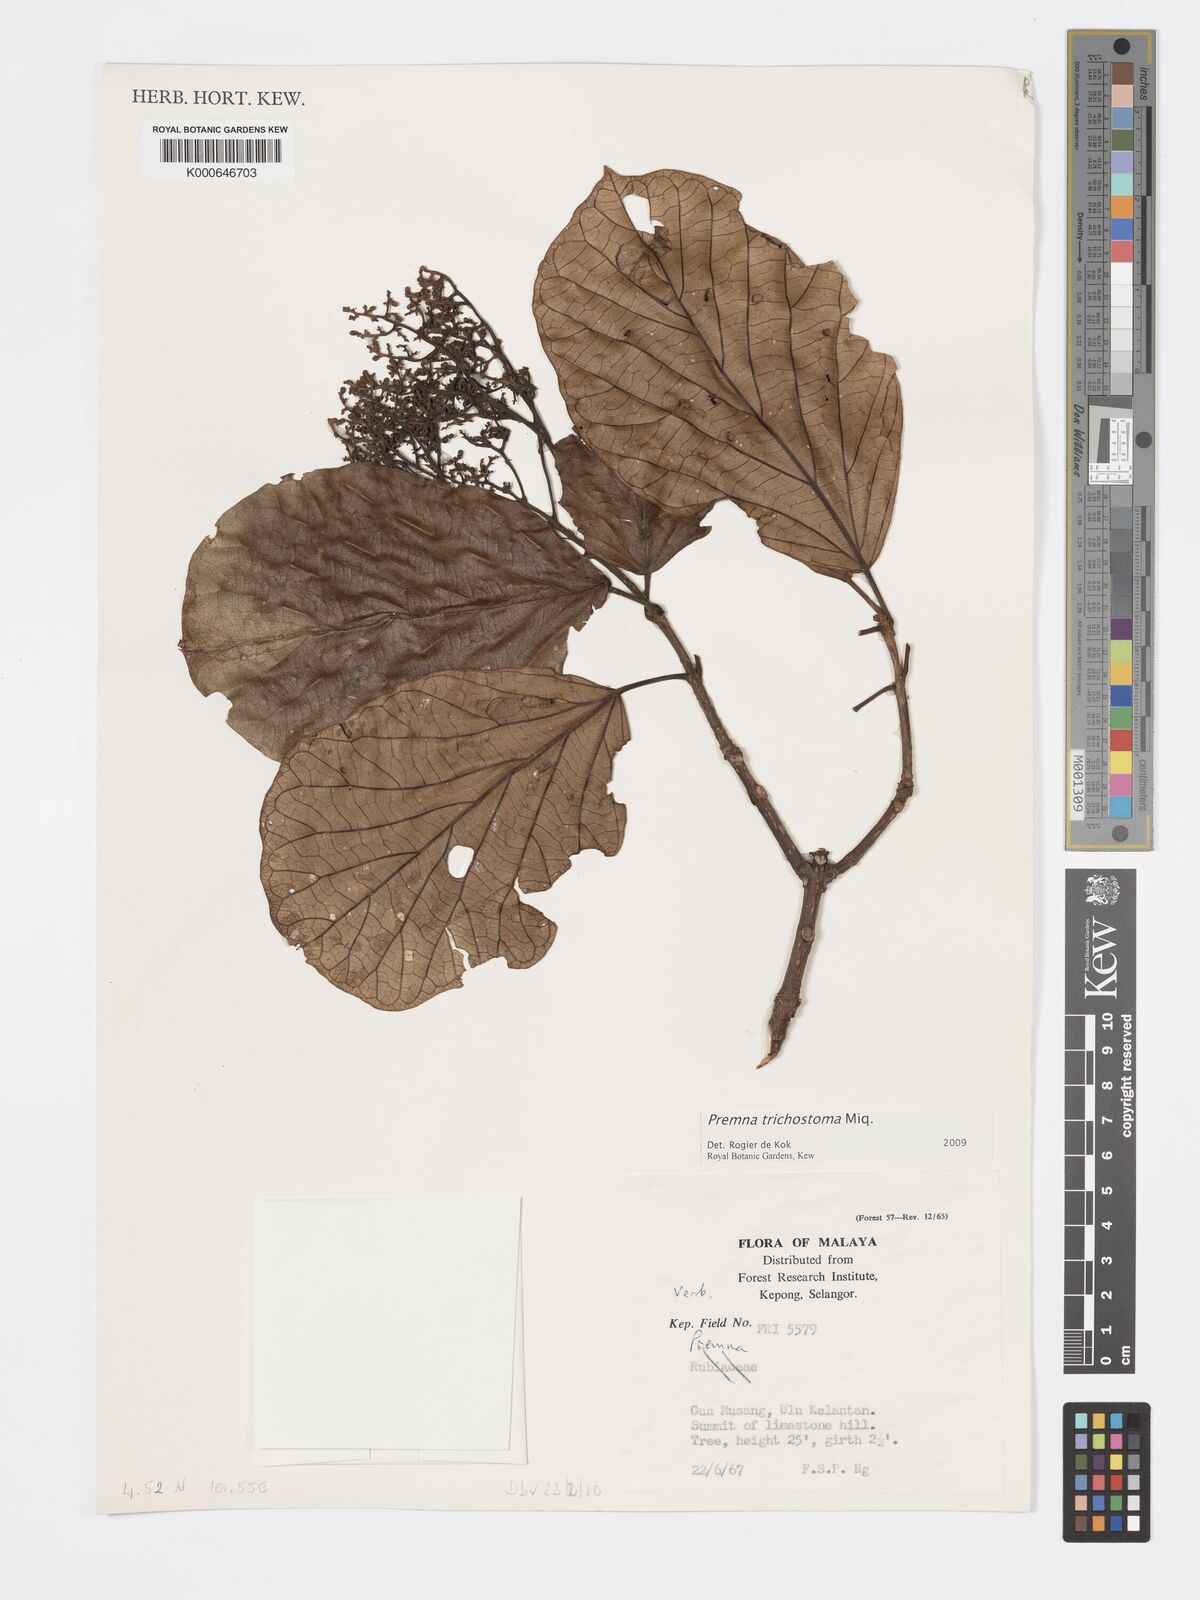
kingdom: Plantae
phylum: Tracheophyta
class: Magnoliopsida
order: Lamiales
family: Lamiaceae
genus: Premna
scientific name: Premna trichostoma
